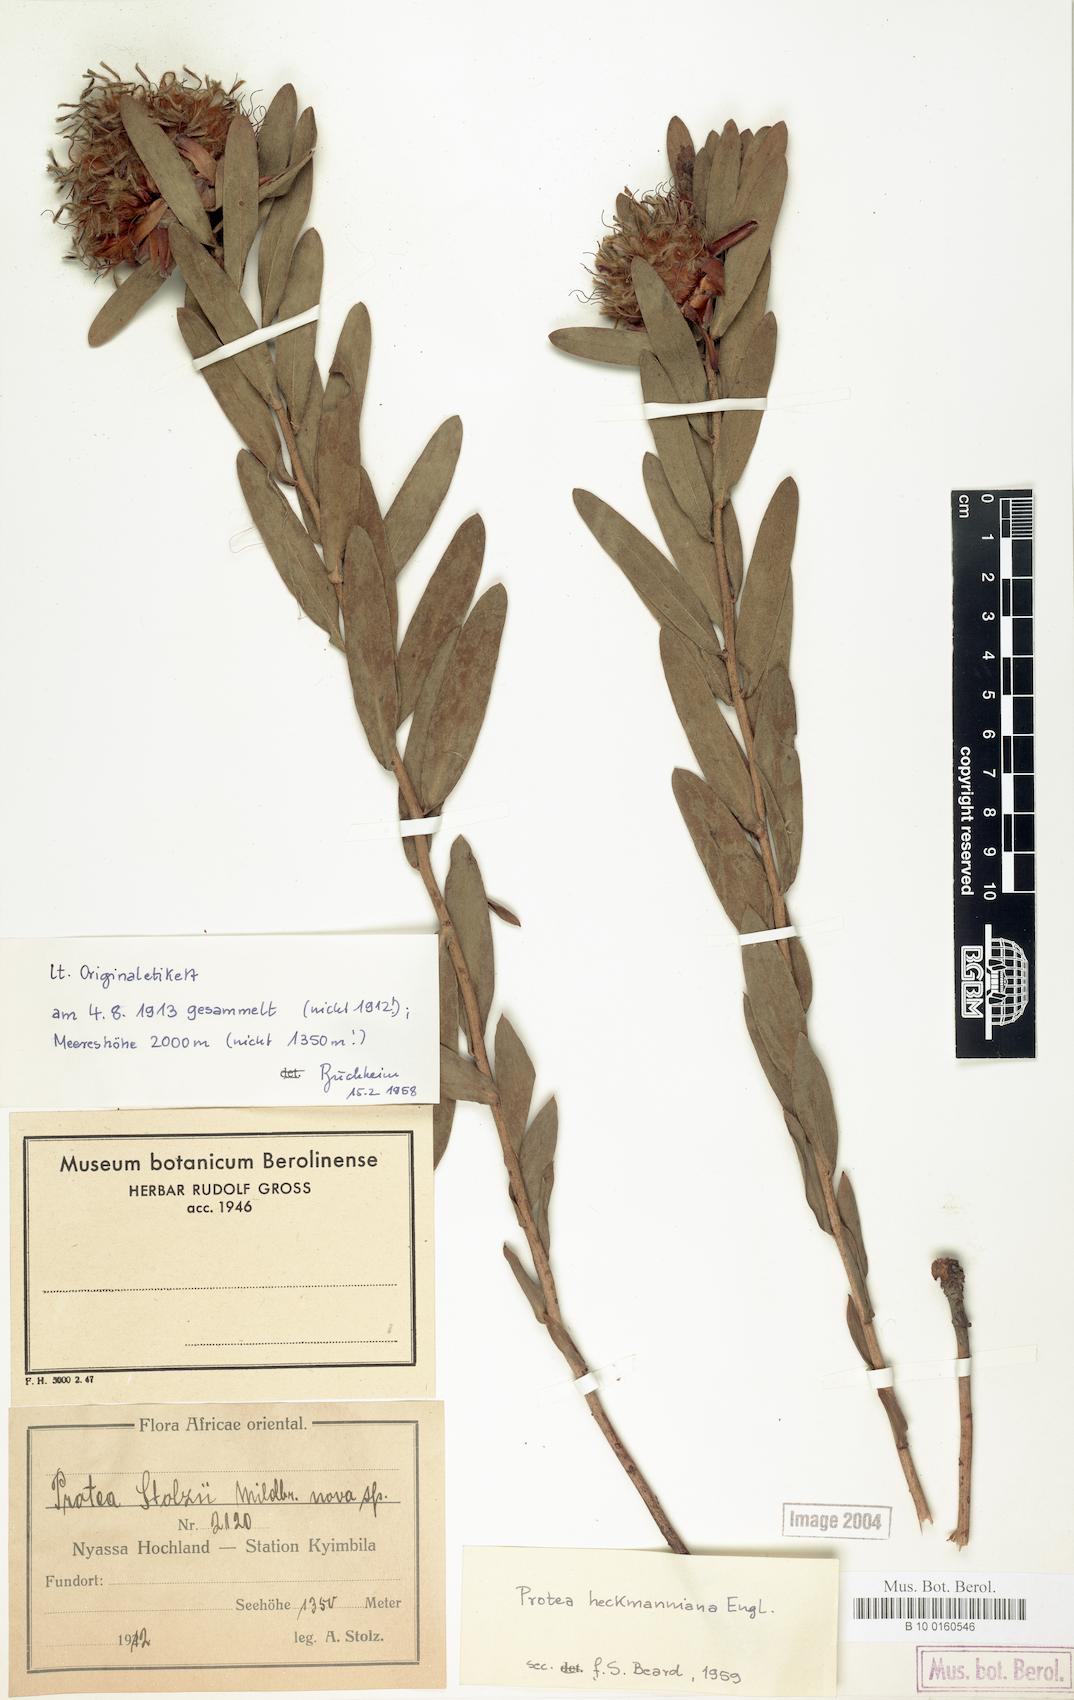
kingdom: Plantae
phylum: Tracheophyta
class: Magnoliopsida
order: Proteales
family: Proteaceae
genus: Protea
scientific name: Protea heckmanniana
